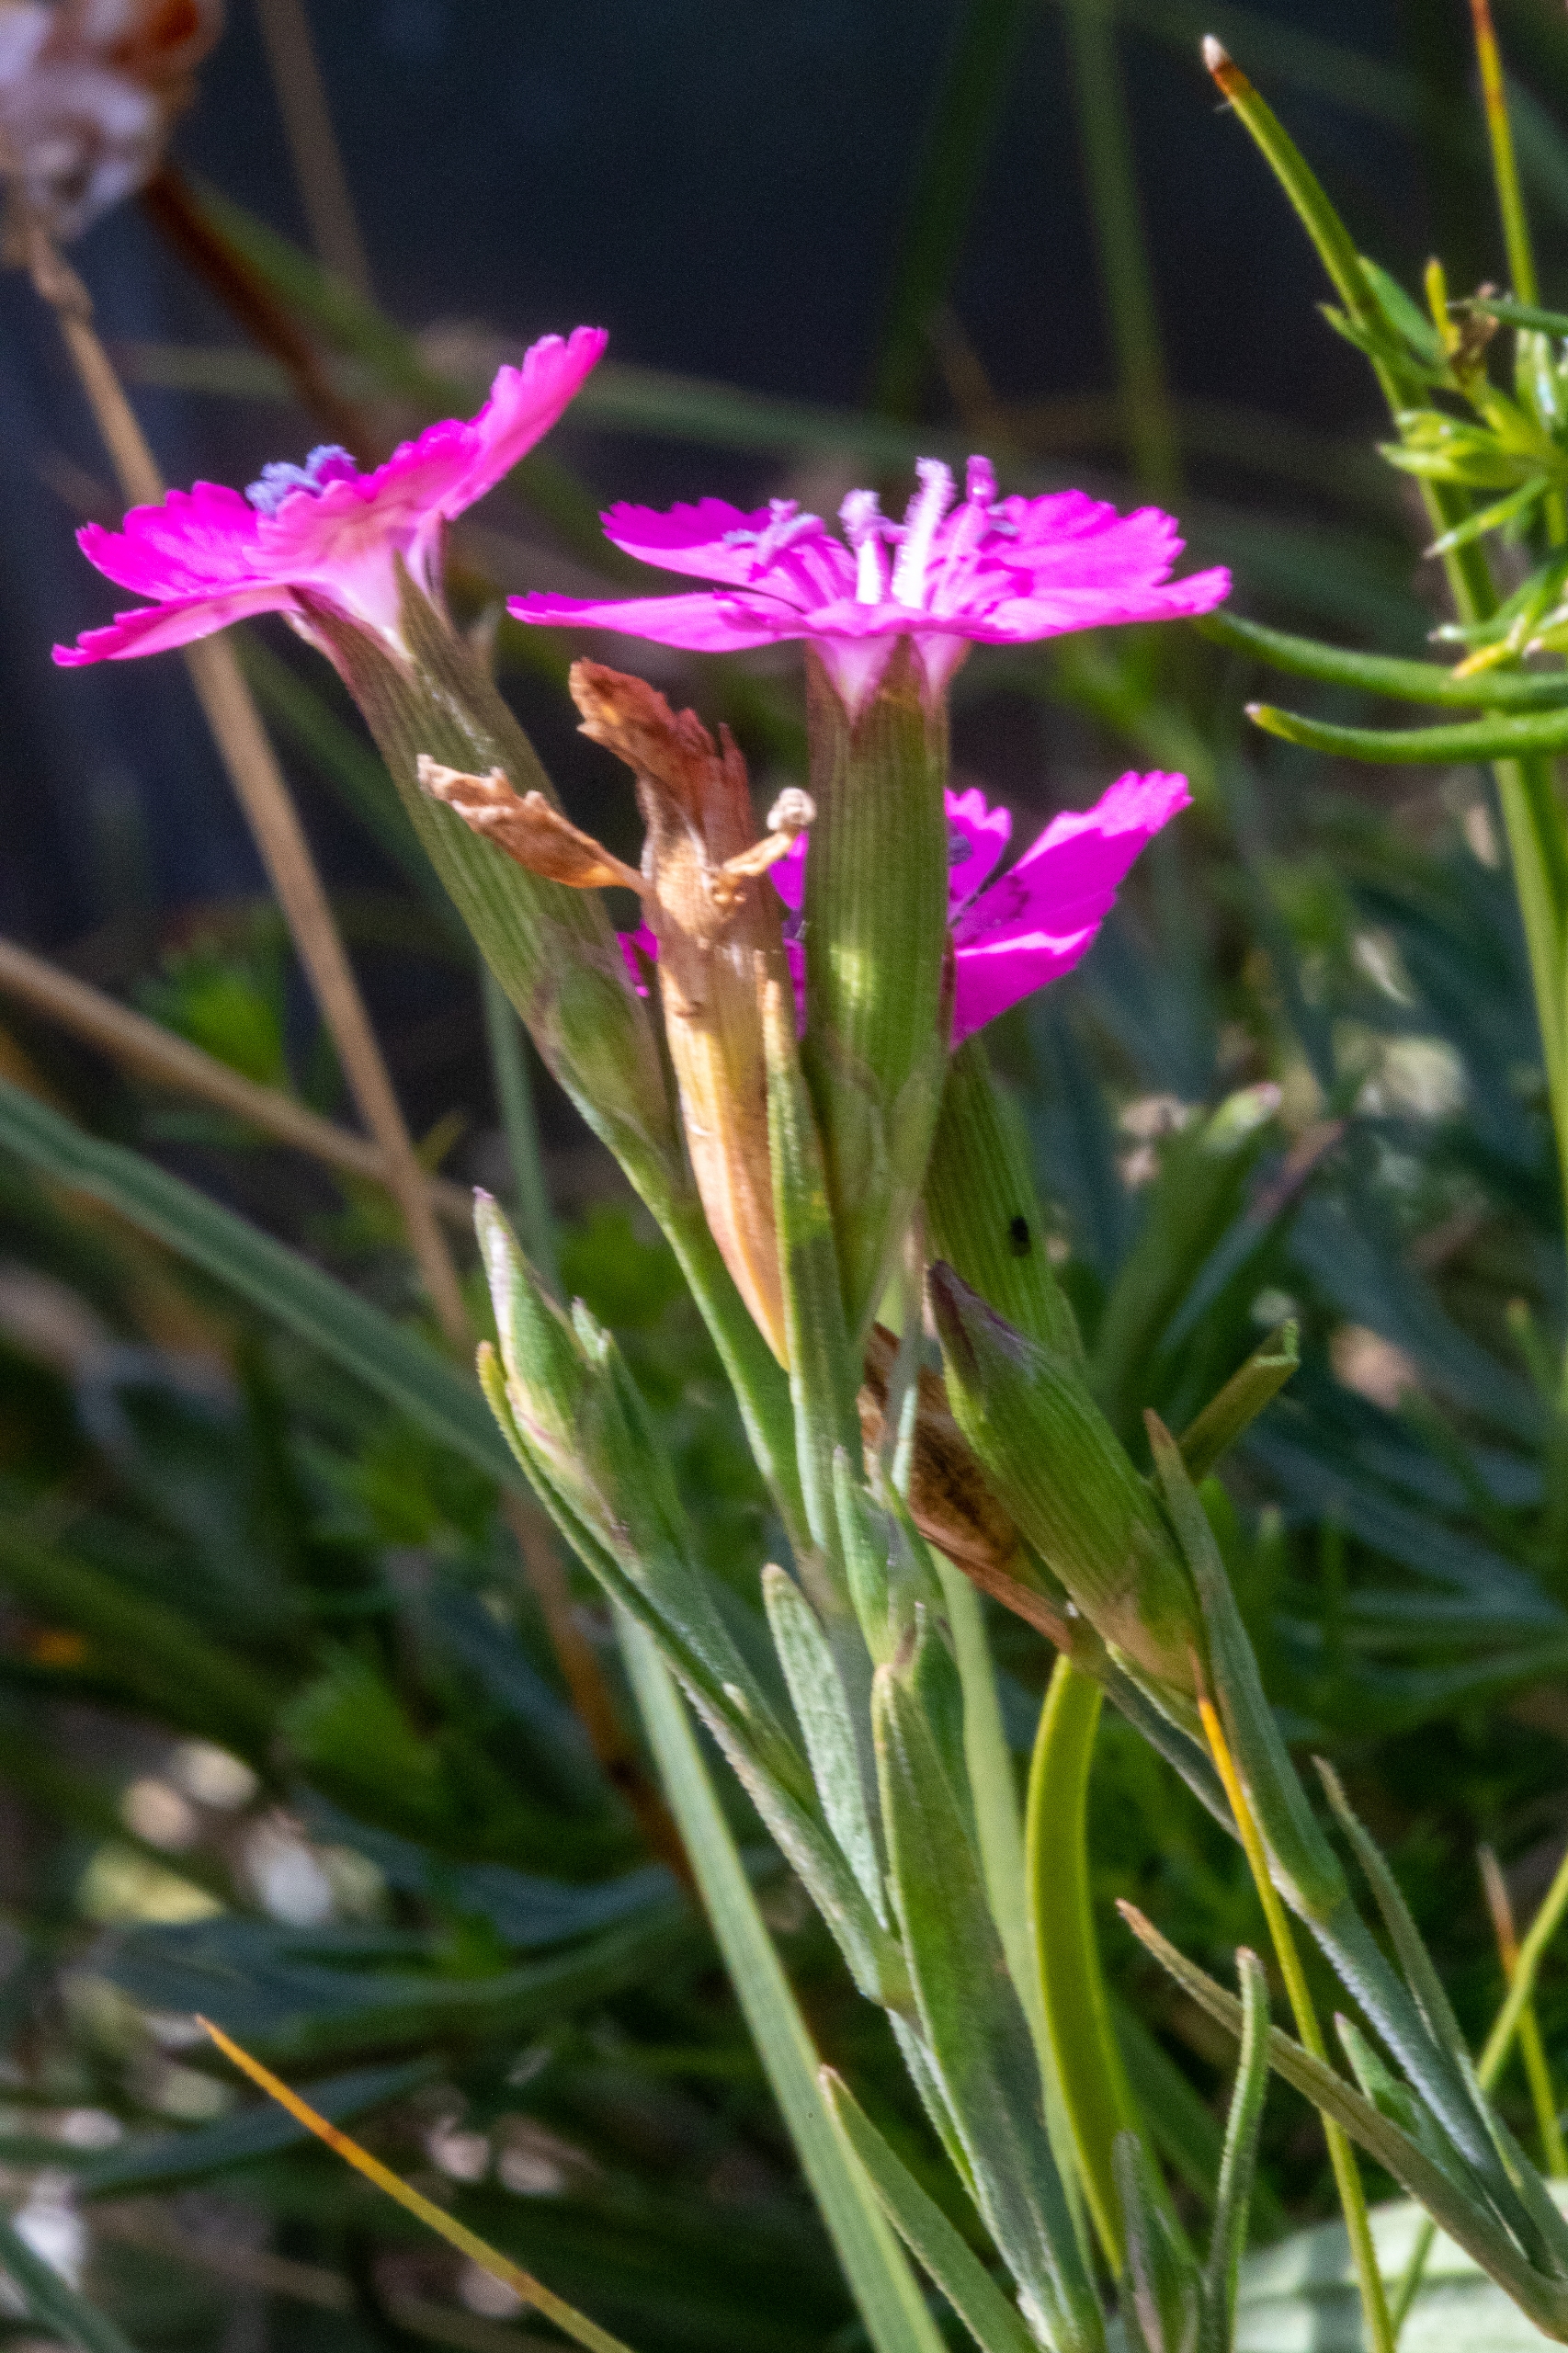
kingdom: Plantae
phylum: Tracheophyta
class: Magnoliopsida
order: Caryophyllales
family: Caryophyllaceae
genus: Dianthus
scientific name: Dianthus deltoides
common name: Bakke-nellike
